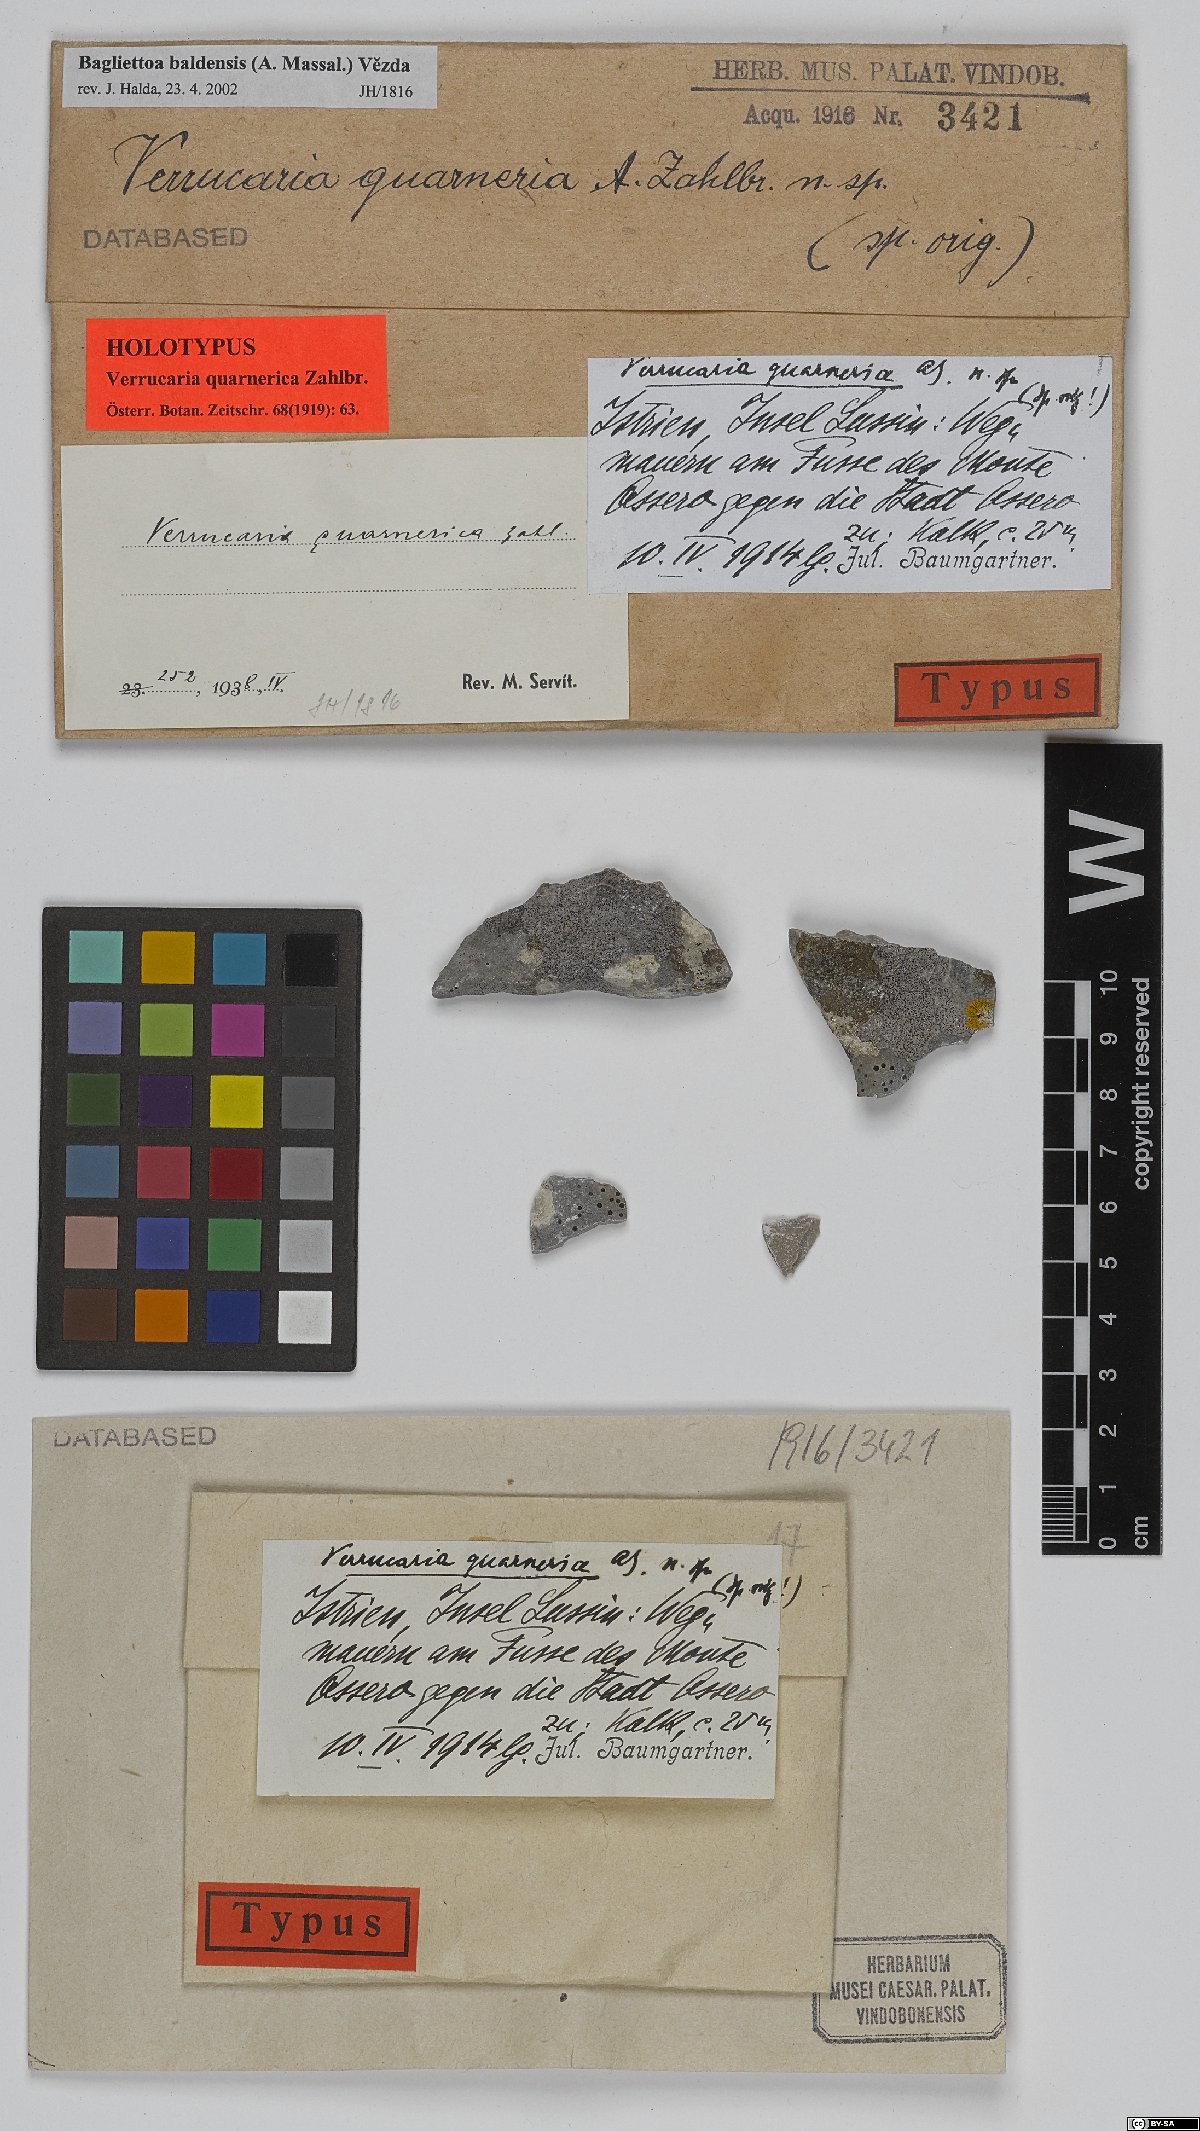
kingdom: Fungi
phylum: Ascomycota
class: Eurotiomycetes
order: Verrucariales
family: Verrucariaceae
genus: Bagliettoa
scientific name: Bagliettoa quarnerica
